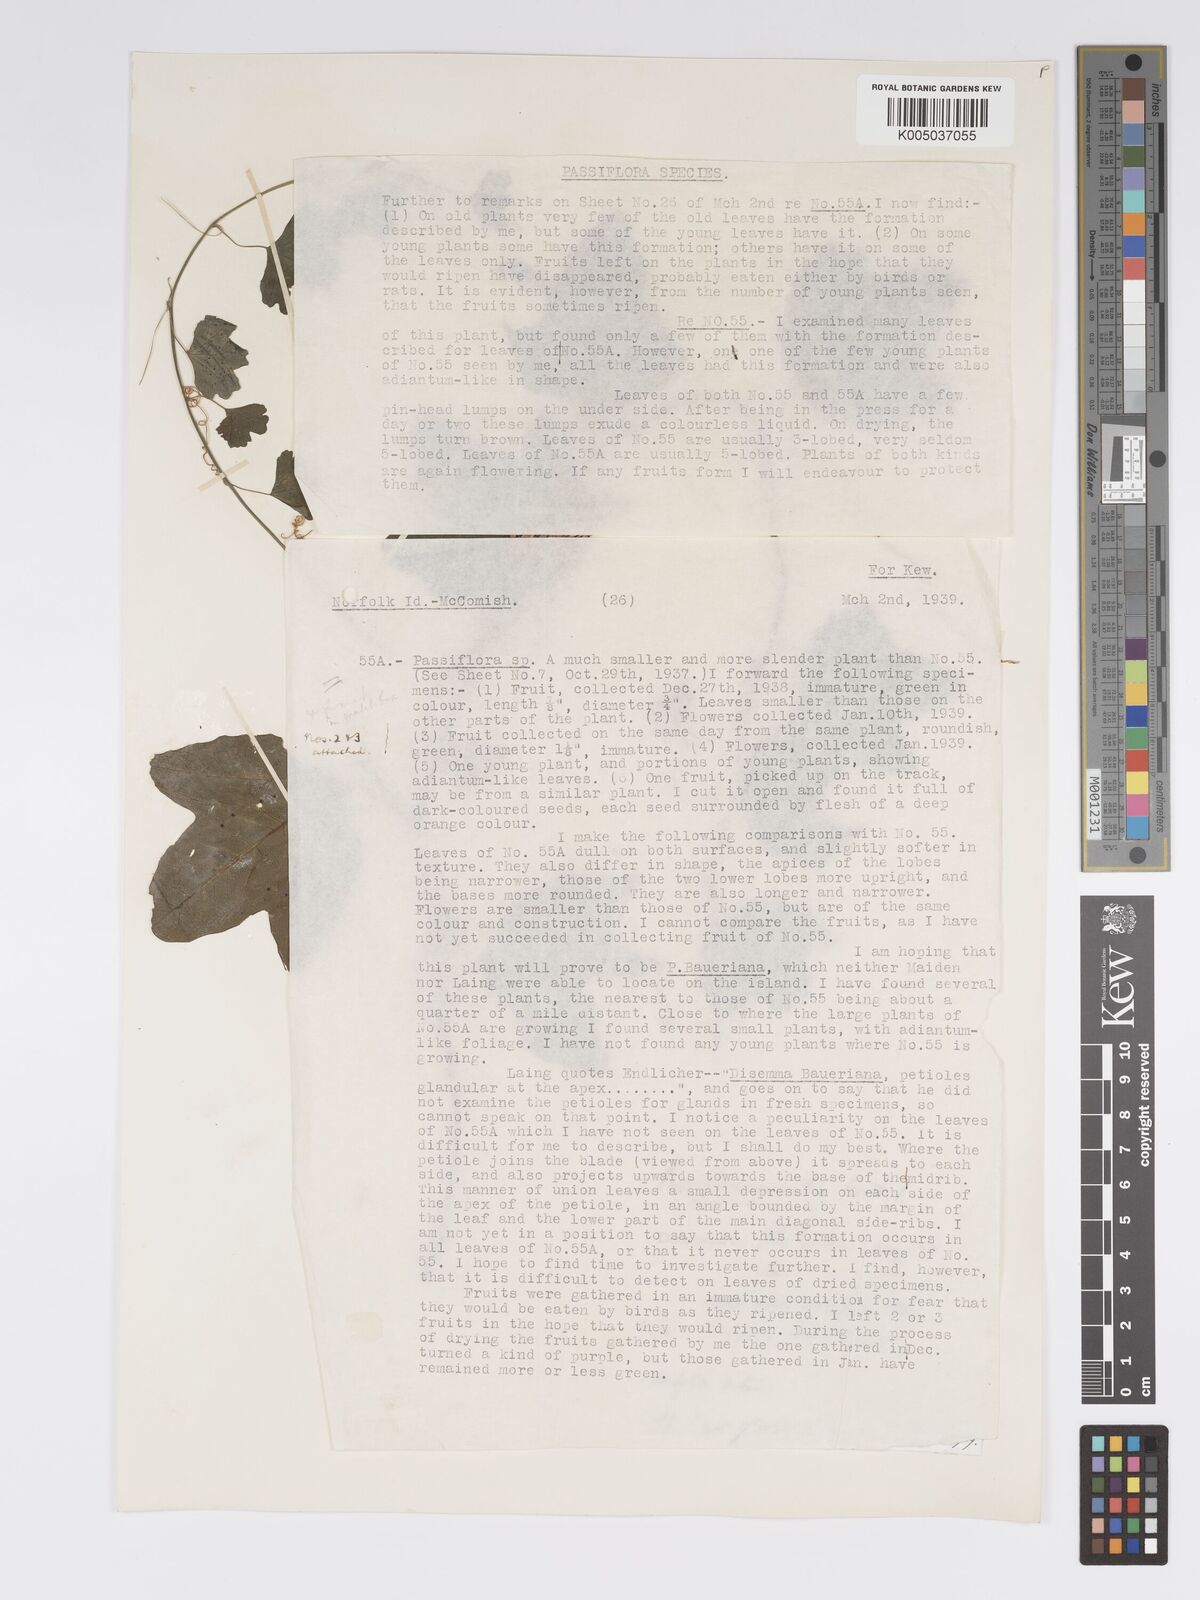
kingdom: Plantae
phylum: Tracheophyta
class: Magnoliopsida
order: Malpighiales
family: Passifloraceae
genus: Passiflora
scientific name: Passiflora aurantia
